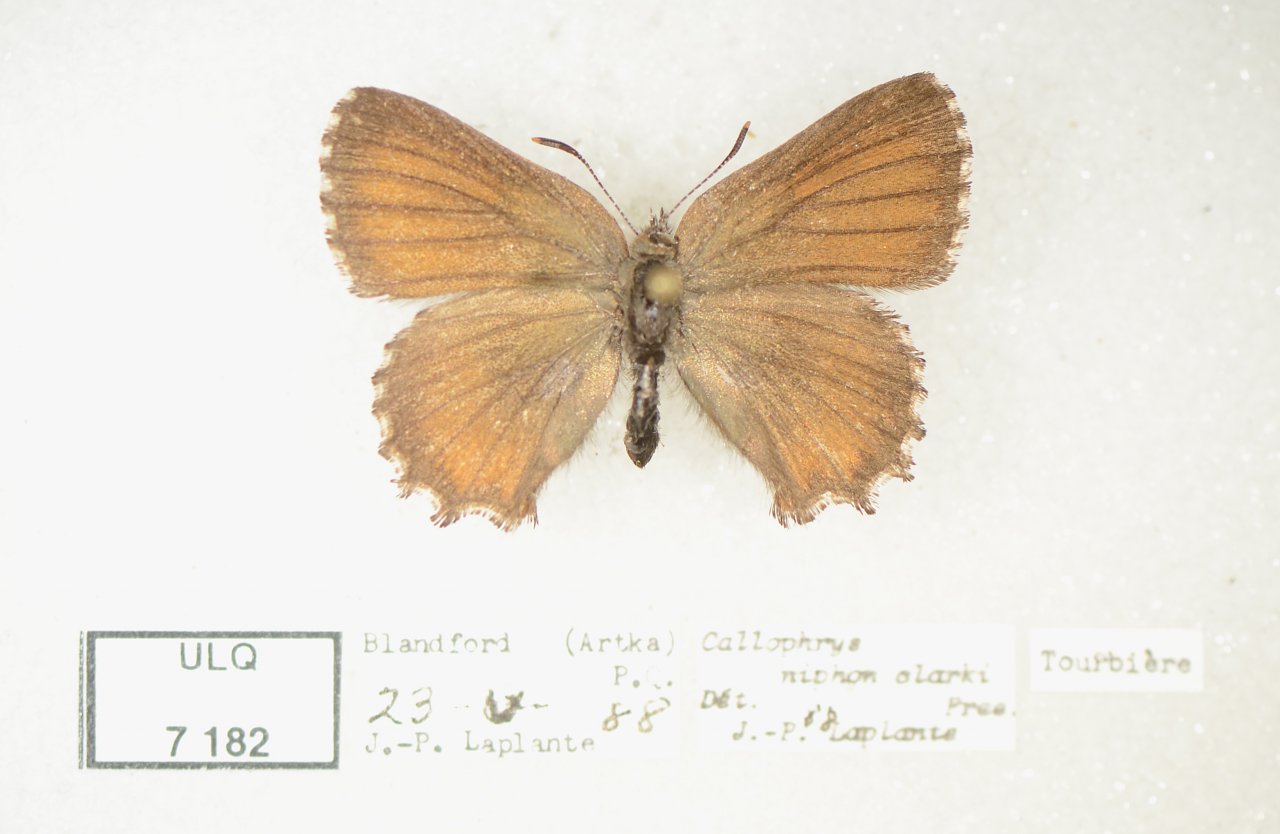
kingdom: Animalia
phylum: Arthropoda
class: Insecta
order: Lepidoptera
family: Lycaenidae
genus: Incisalia
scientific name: Incisalia niphon
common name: Eastern Pine Elfin
